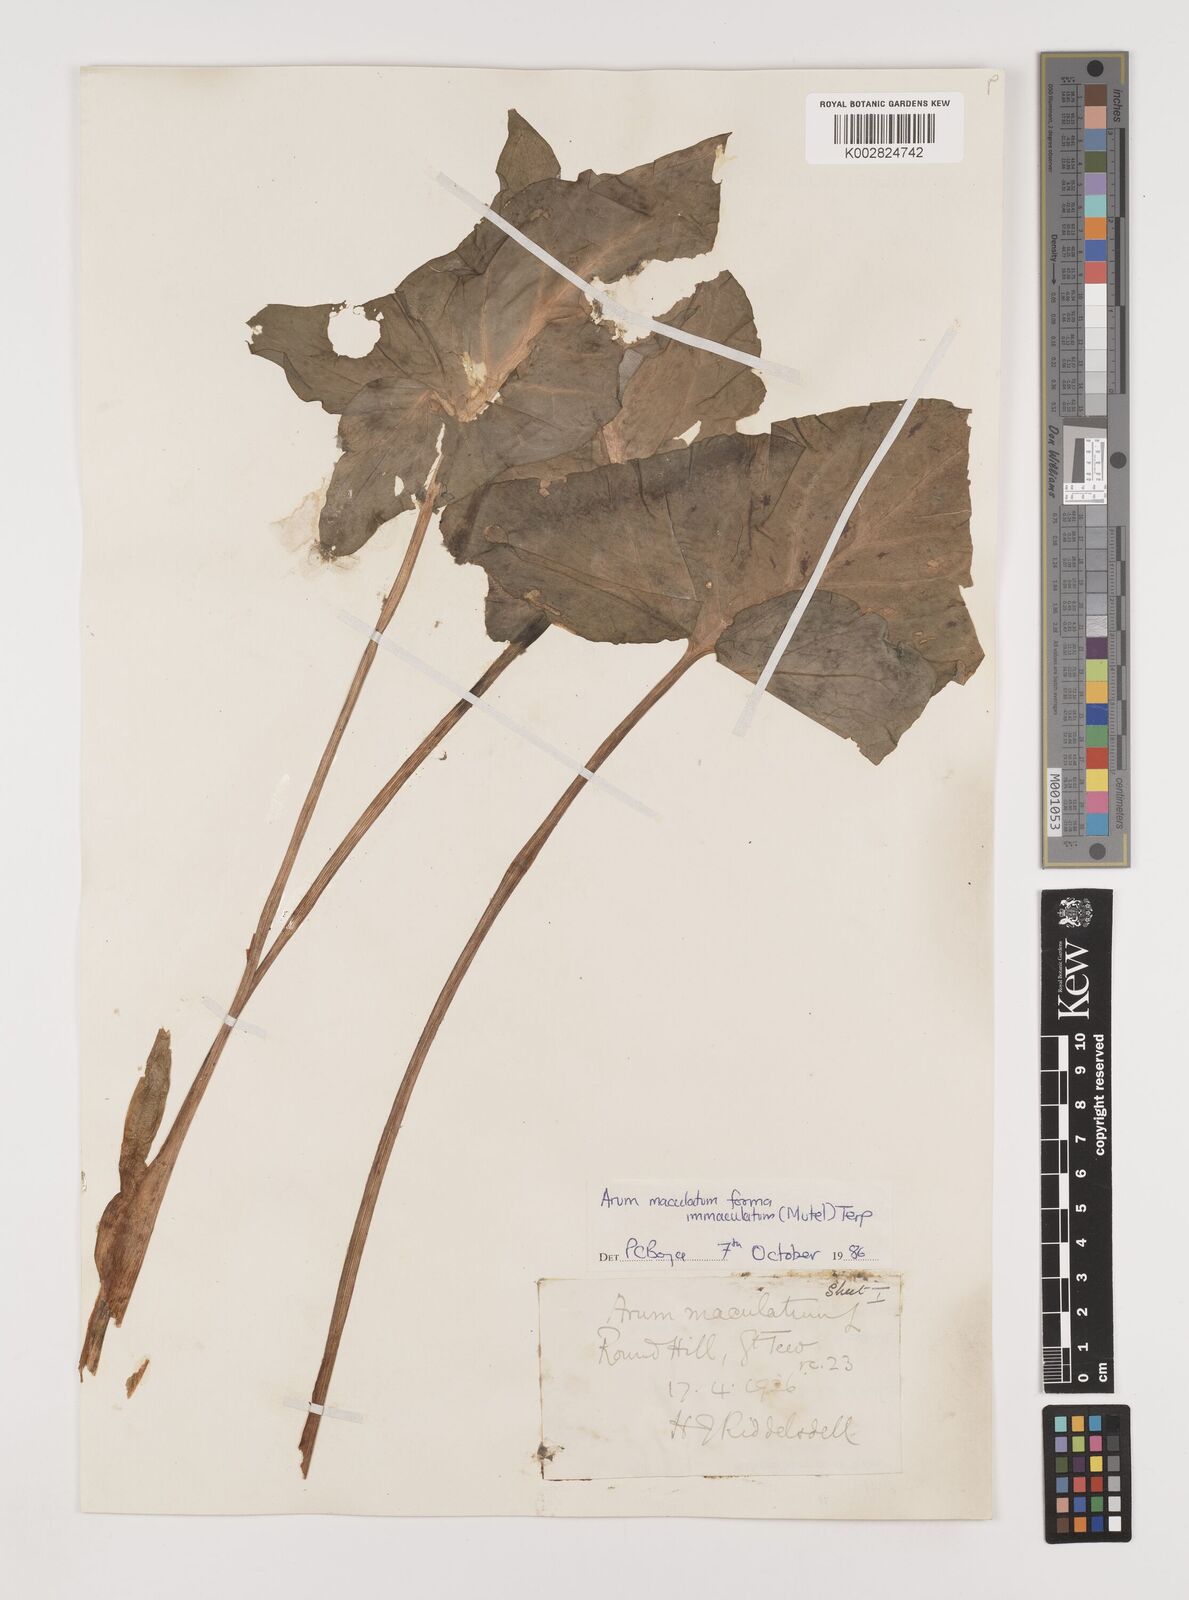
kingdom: Plantae
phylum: Tracheophyta
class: Liliopsida
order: Alismatales
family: Araceae
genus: Arum
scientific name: Arum maculatum
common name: Lords-and-ladies
